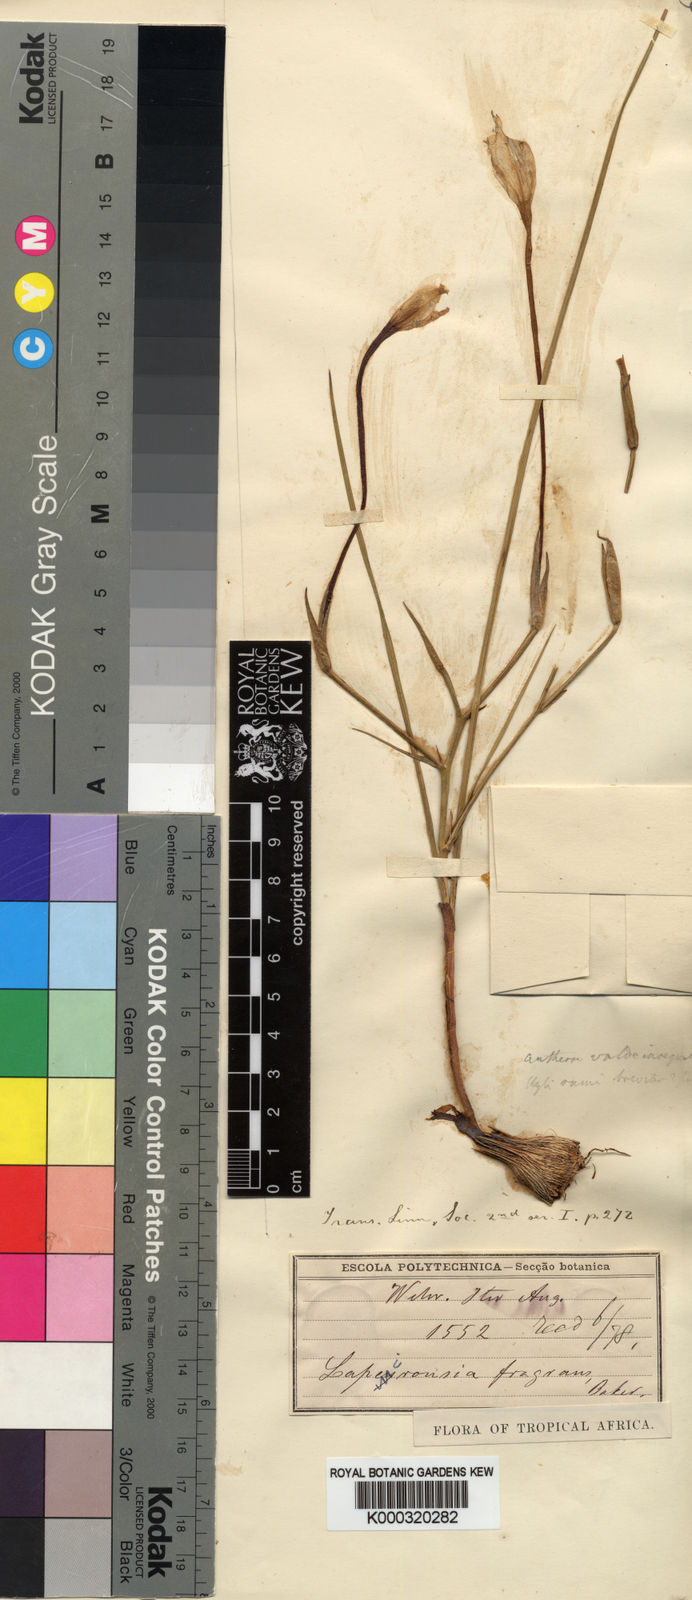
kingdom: Plantae
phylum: Tracheophyta
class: Liliopsida
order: Asparagales
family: Iridaceae
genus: Afrosolen
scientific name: Afrosolen schimperi
